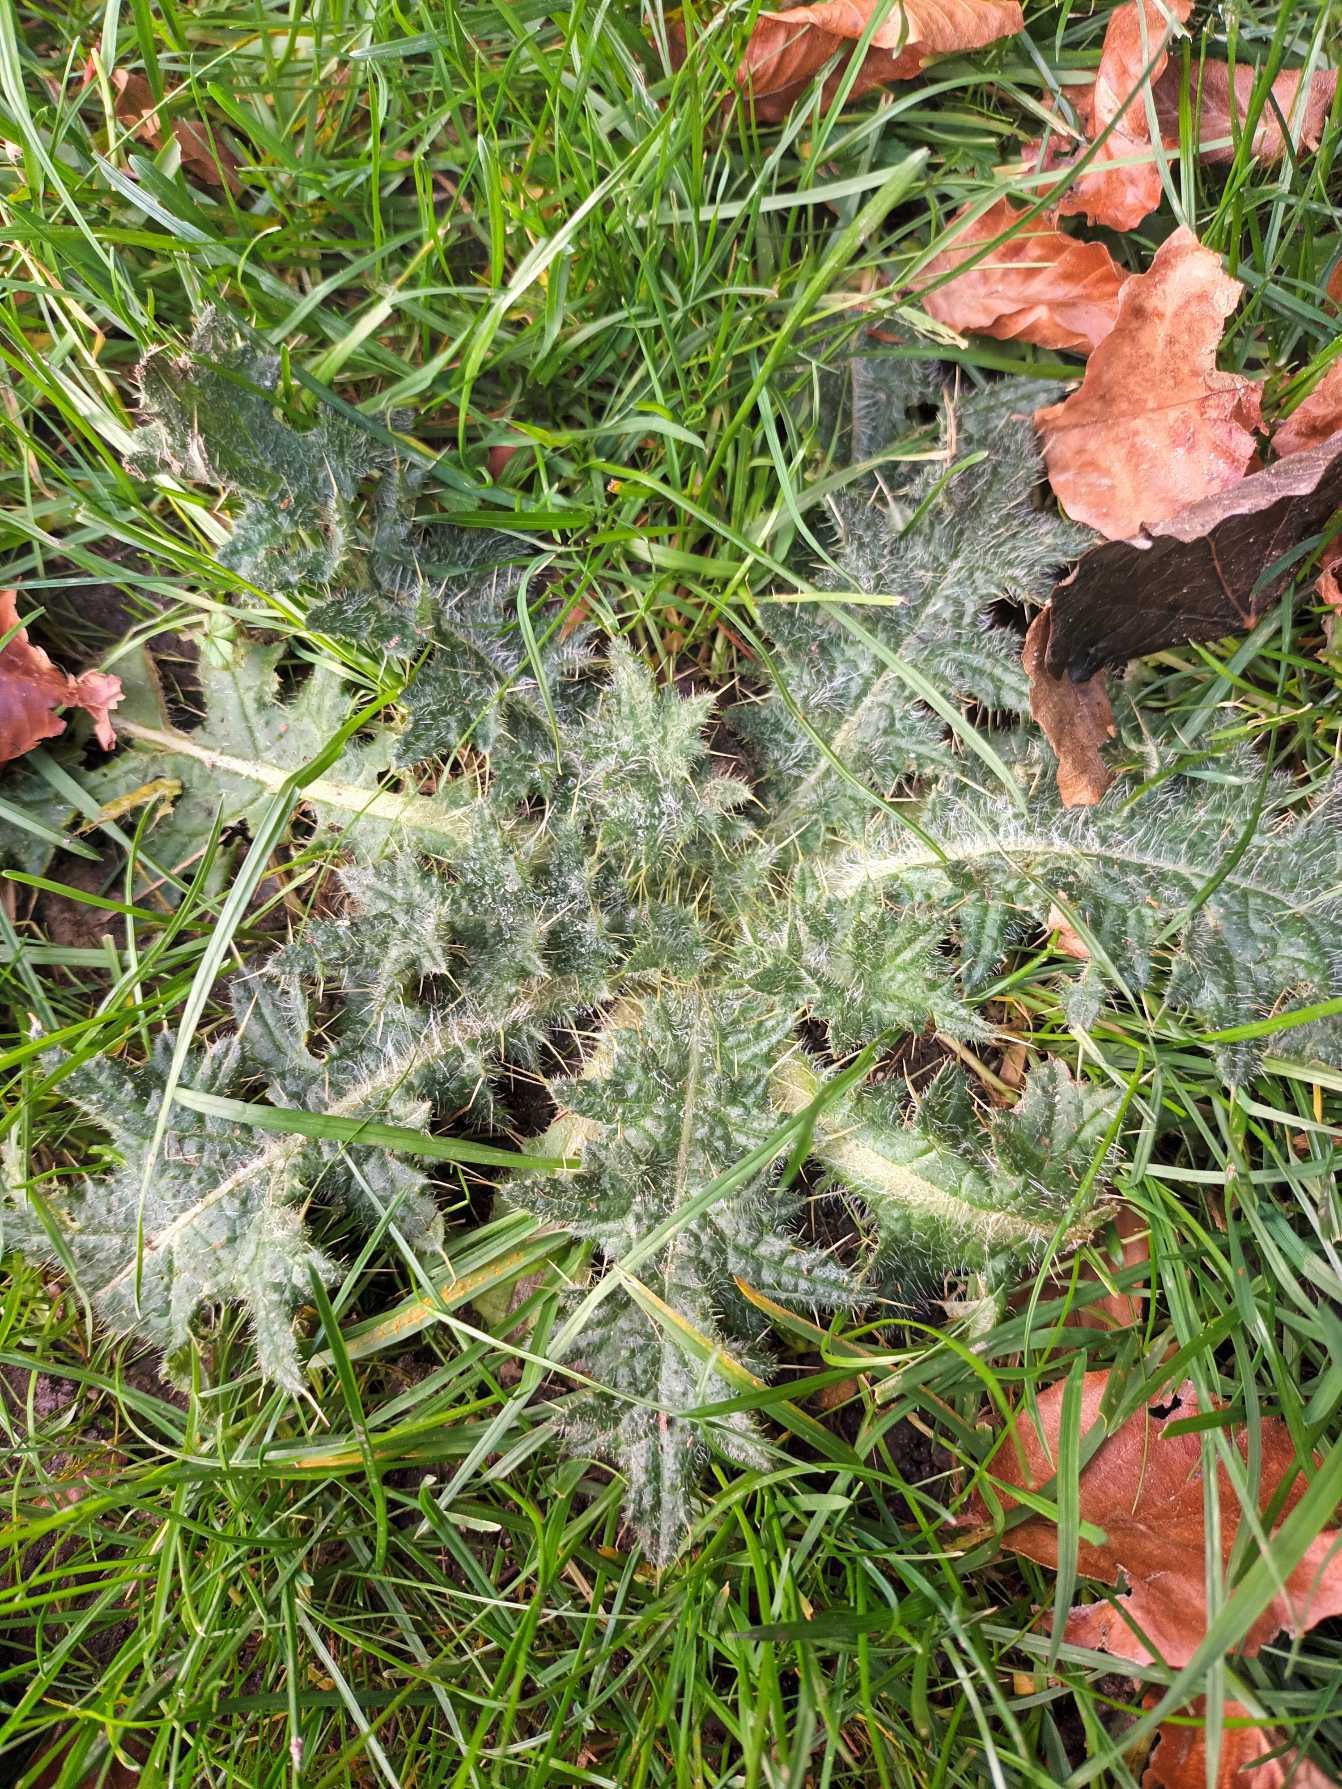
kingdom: Plantae
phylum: Tracheophyta
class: Magnoliopsida
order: Asterales
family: Asteraceae
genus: Cirsium
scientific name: Cirsium vulgare
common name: Horse-tidsel
